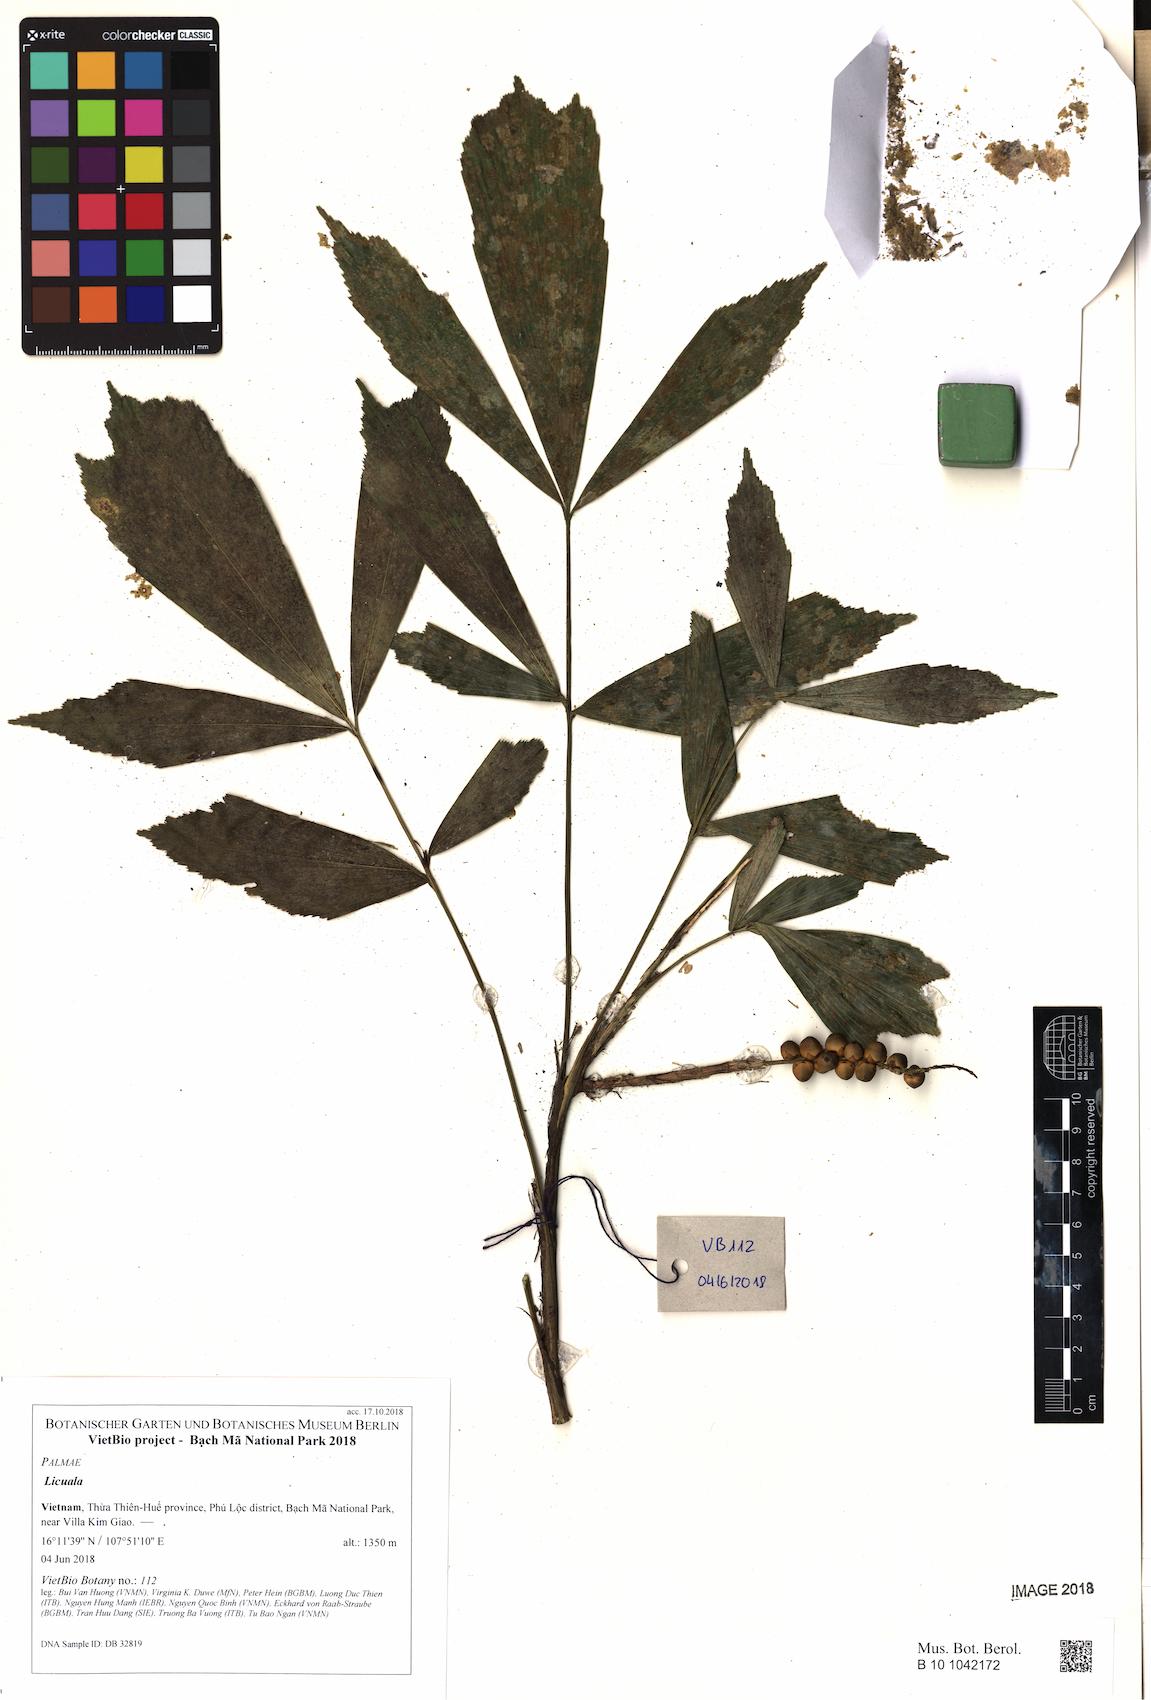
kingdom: Plantae
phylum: Tracheophyta
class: Liliopsida
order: Arecales
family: Arecaceae
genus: Licuala
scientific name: Licuala
